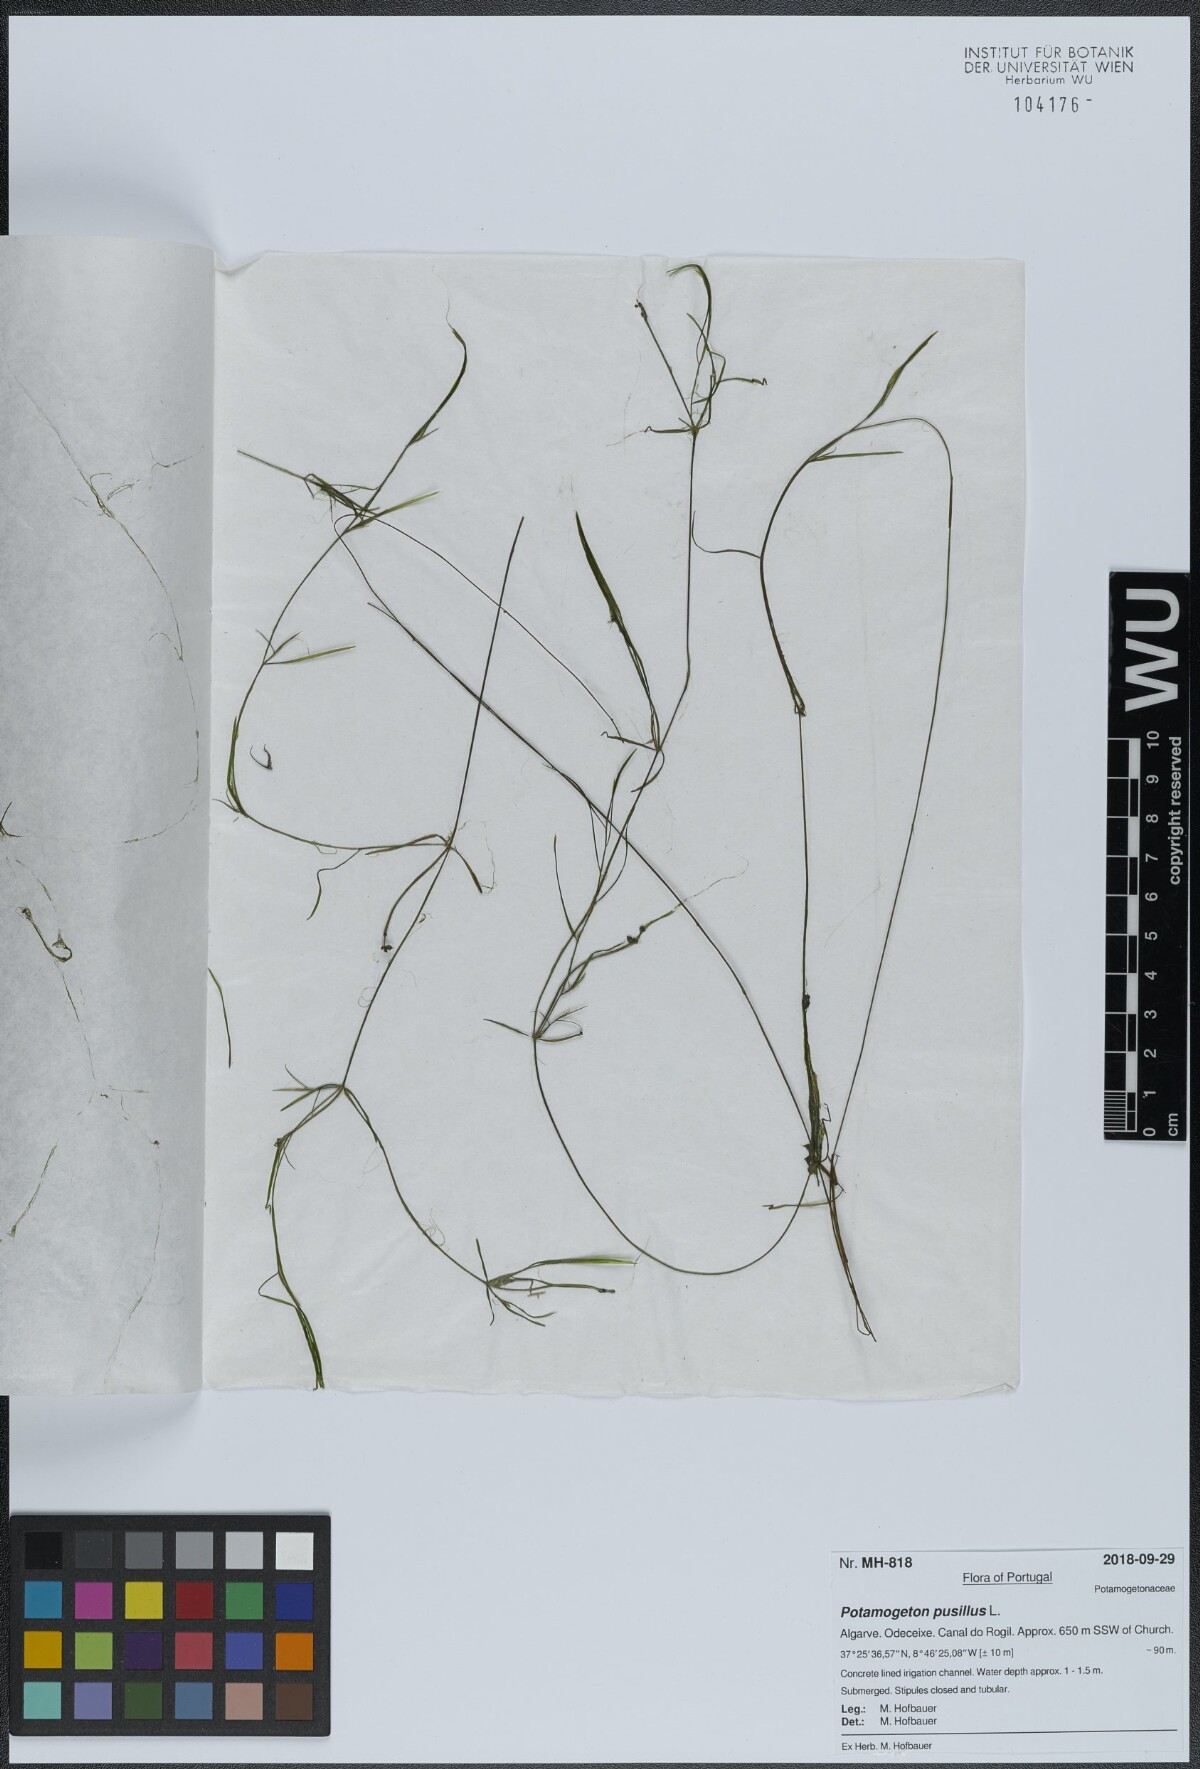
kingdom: Plantae
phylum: Tracheophyta
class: Liliopsida
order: Alismatales
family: Potamogetonaceae
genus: Potamogeton
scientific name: Potamogeton pusillus
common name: Lesser pondweed
